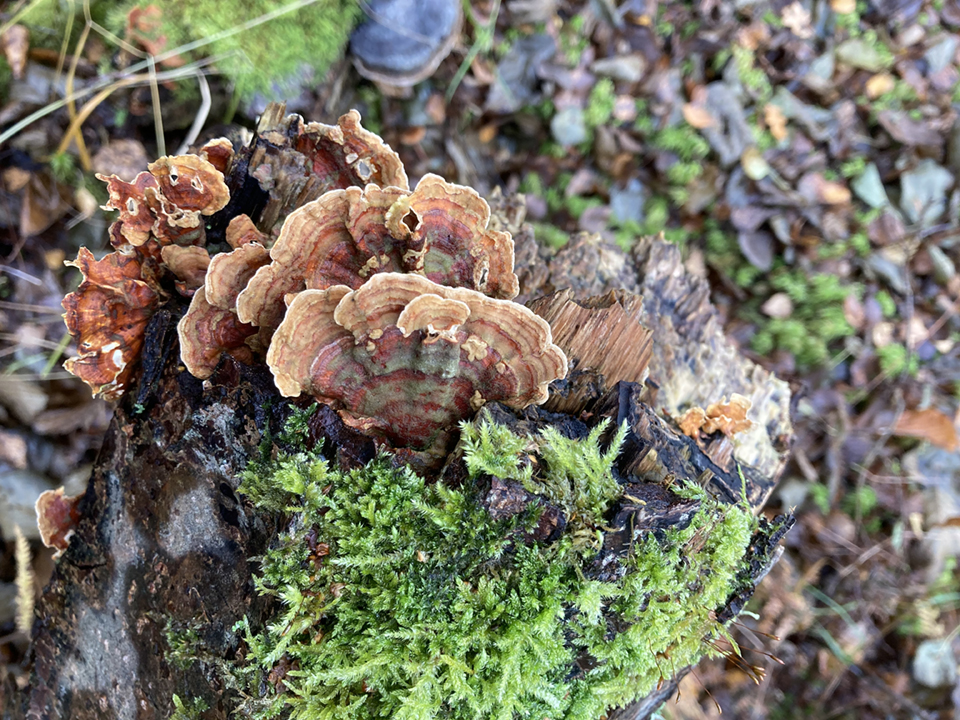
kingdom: Fungi
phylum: Basidiomycota
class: Agaricomycetes
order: Russulales
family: Stereaceae
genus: Stereum
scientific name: Stereum subtomentosum
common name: smuk lædersvamp
